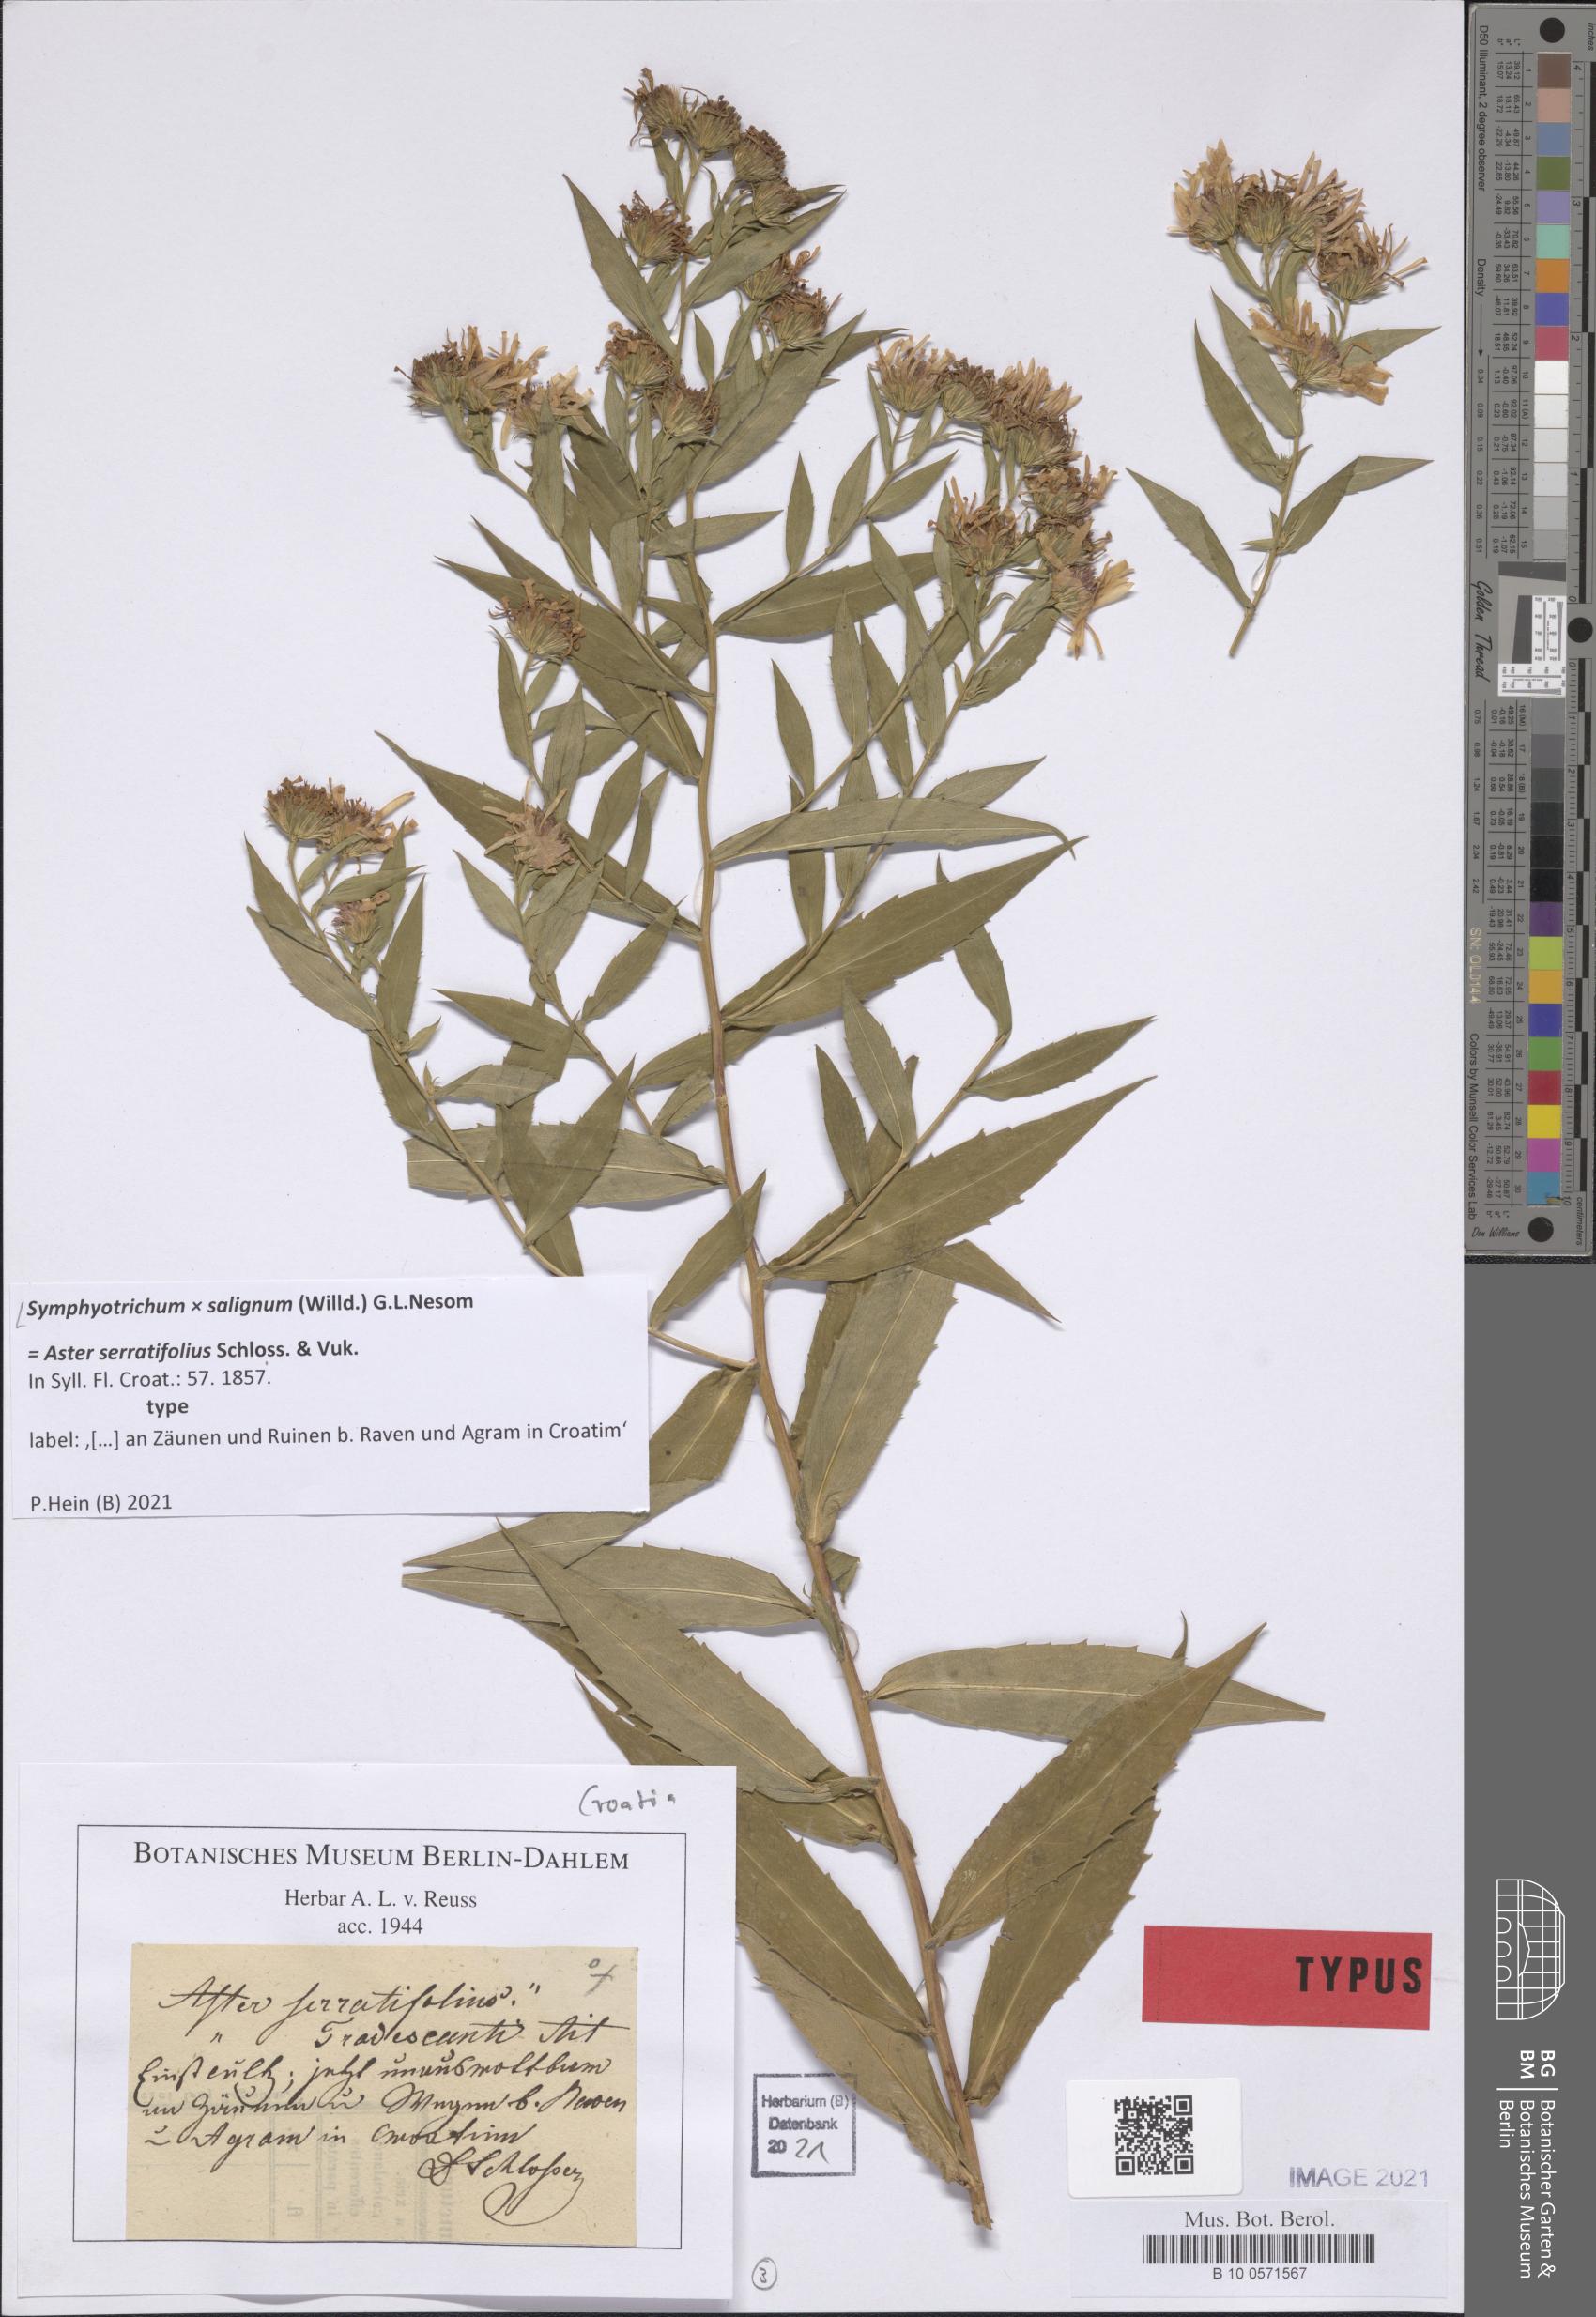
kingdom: Plantae
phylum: Tracheophyta
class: Magnoliopsida
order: Asterales
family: Asteraceae
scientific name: Asteraceae
